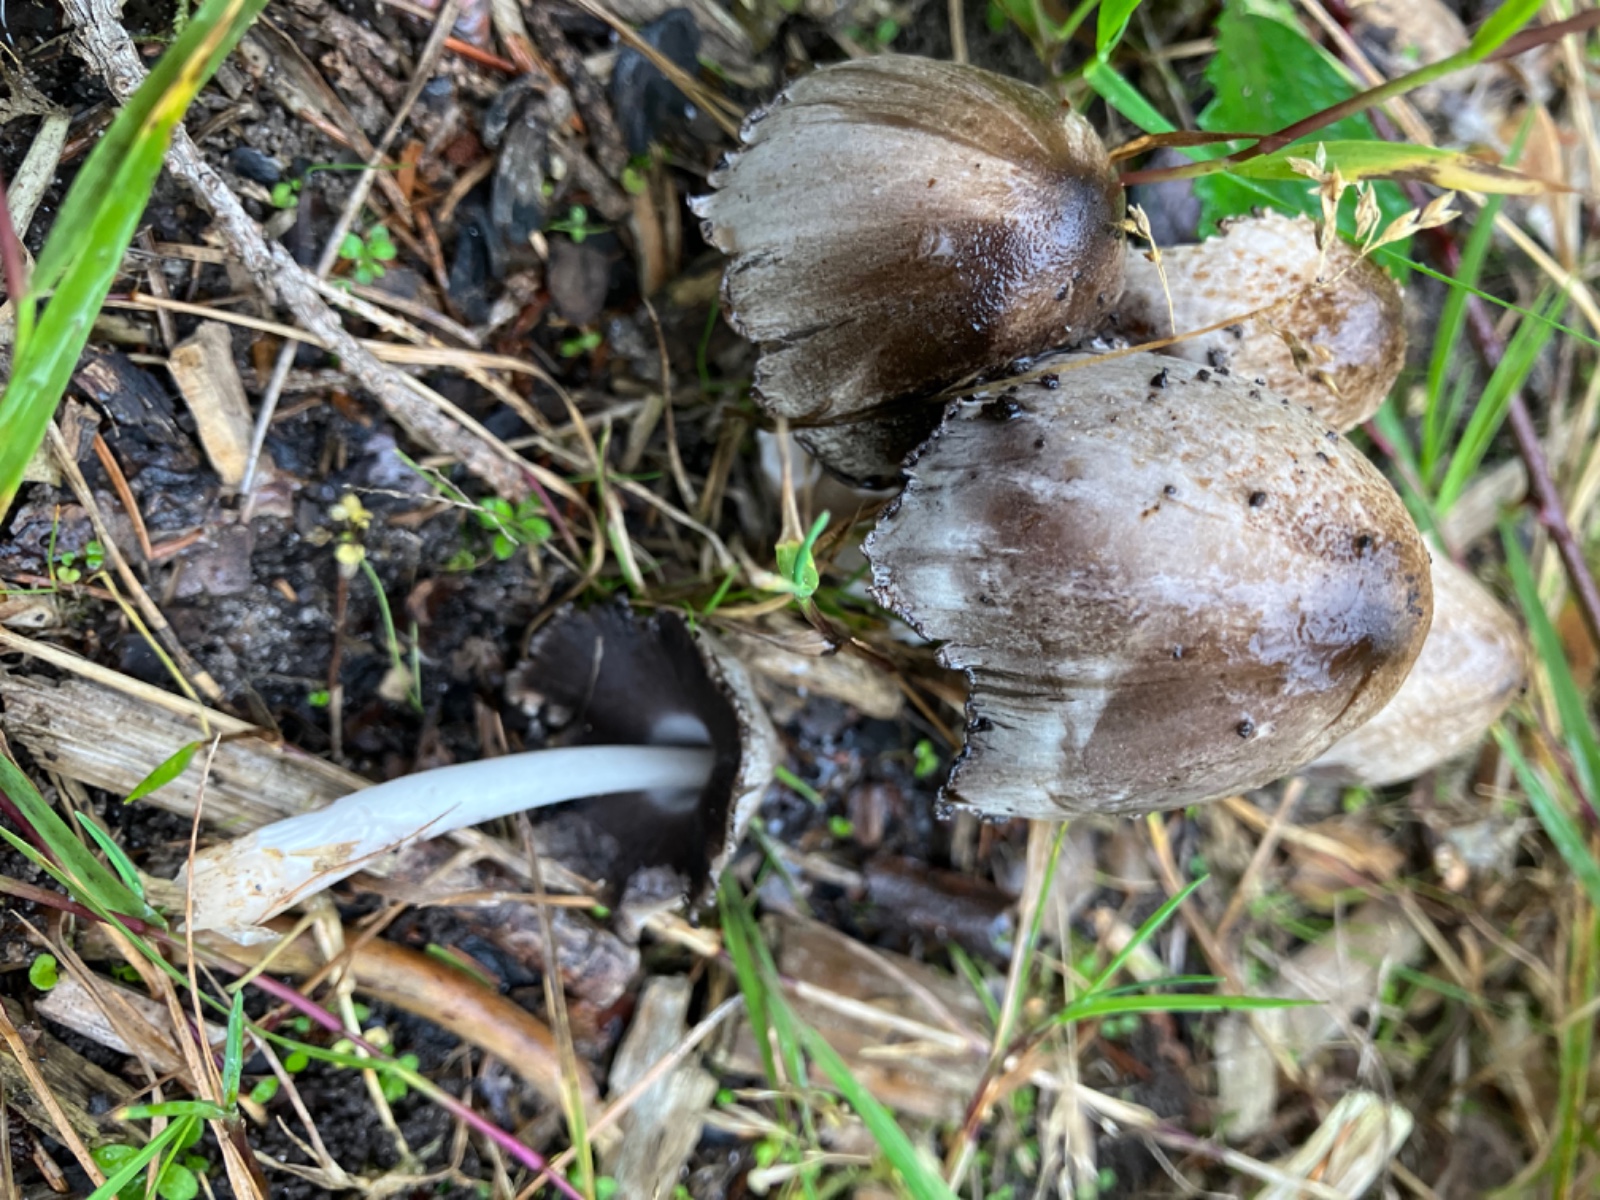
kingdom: Fungi
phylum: Basidiomycota
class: Agaricomycetes
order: Agaricales
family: Psathyrellaceae
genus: Coprinopsis
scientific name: Coprinopsis atramentaria
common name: almindelig blækhat
